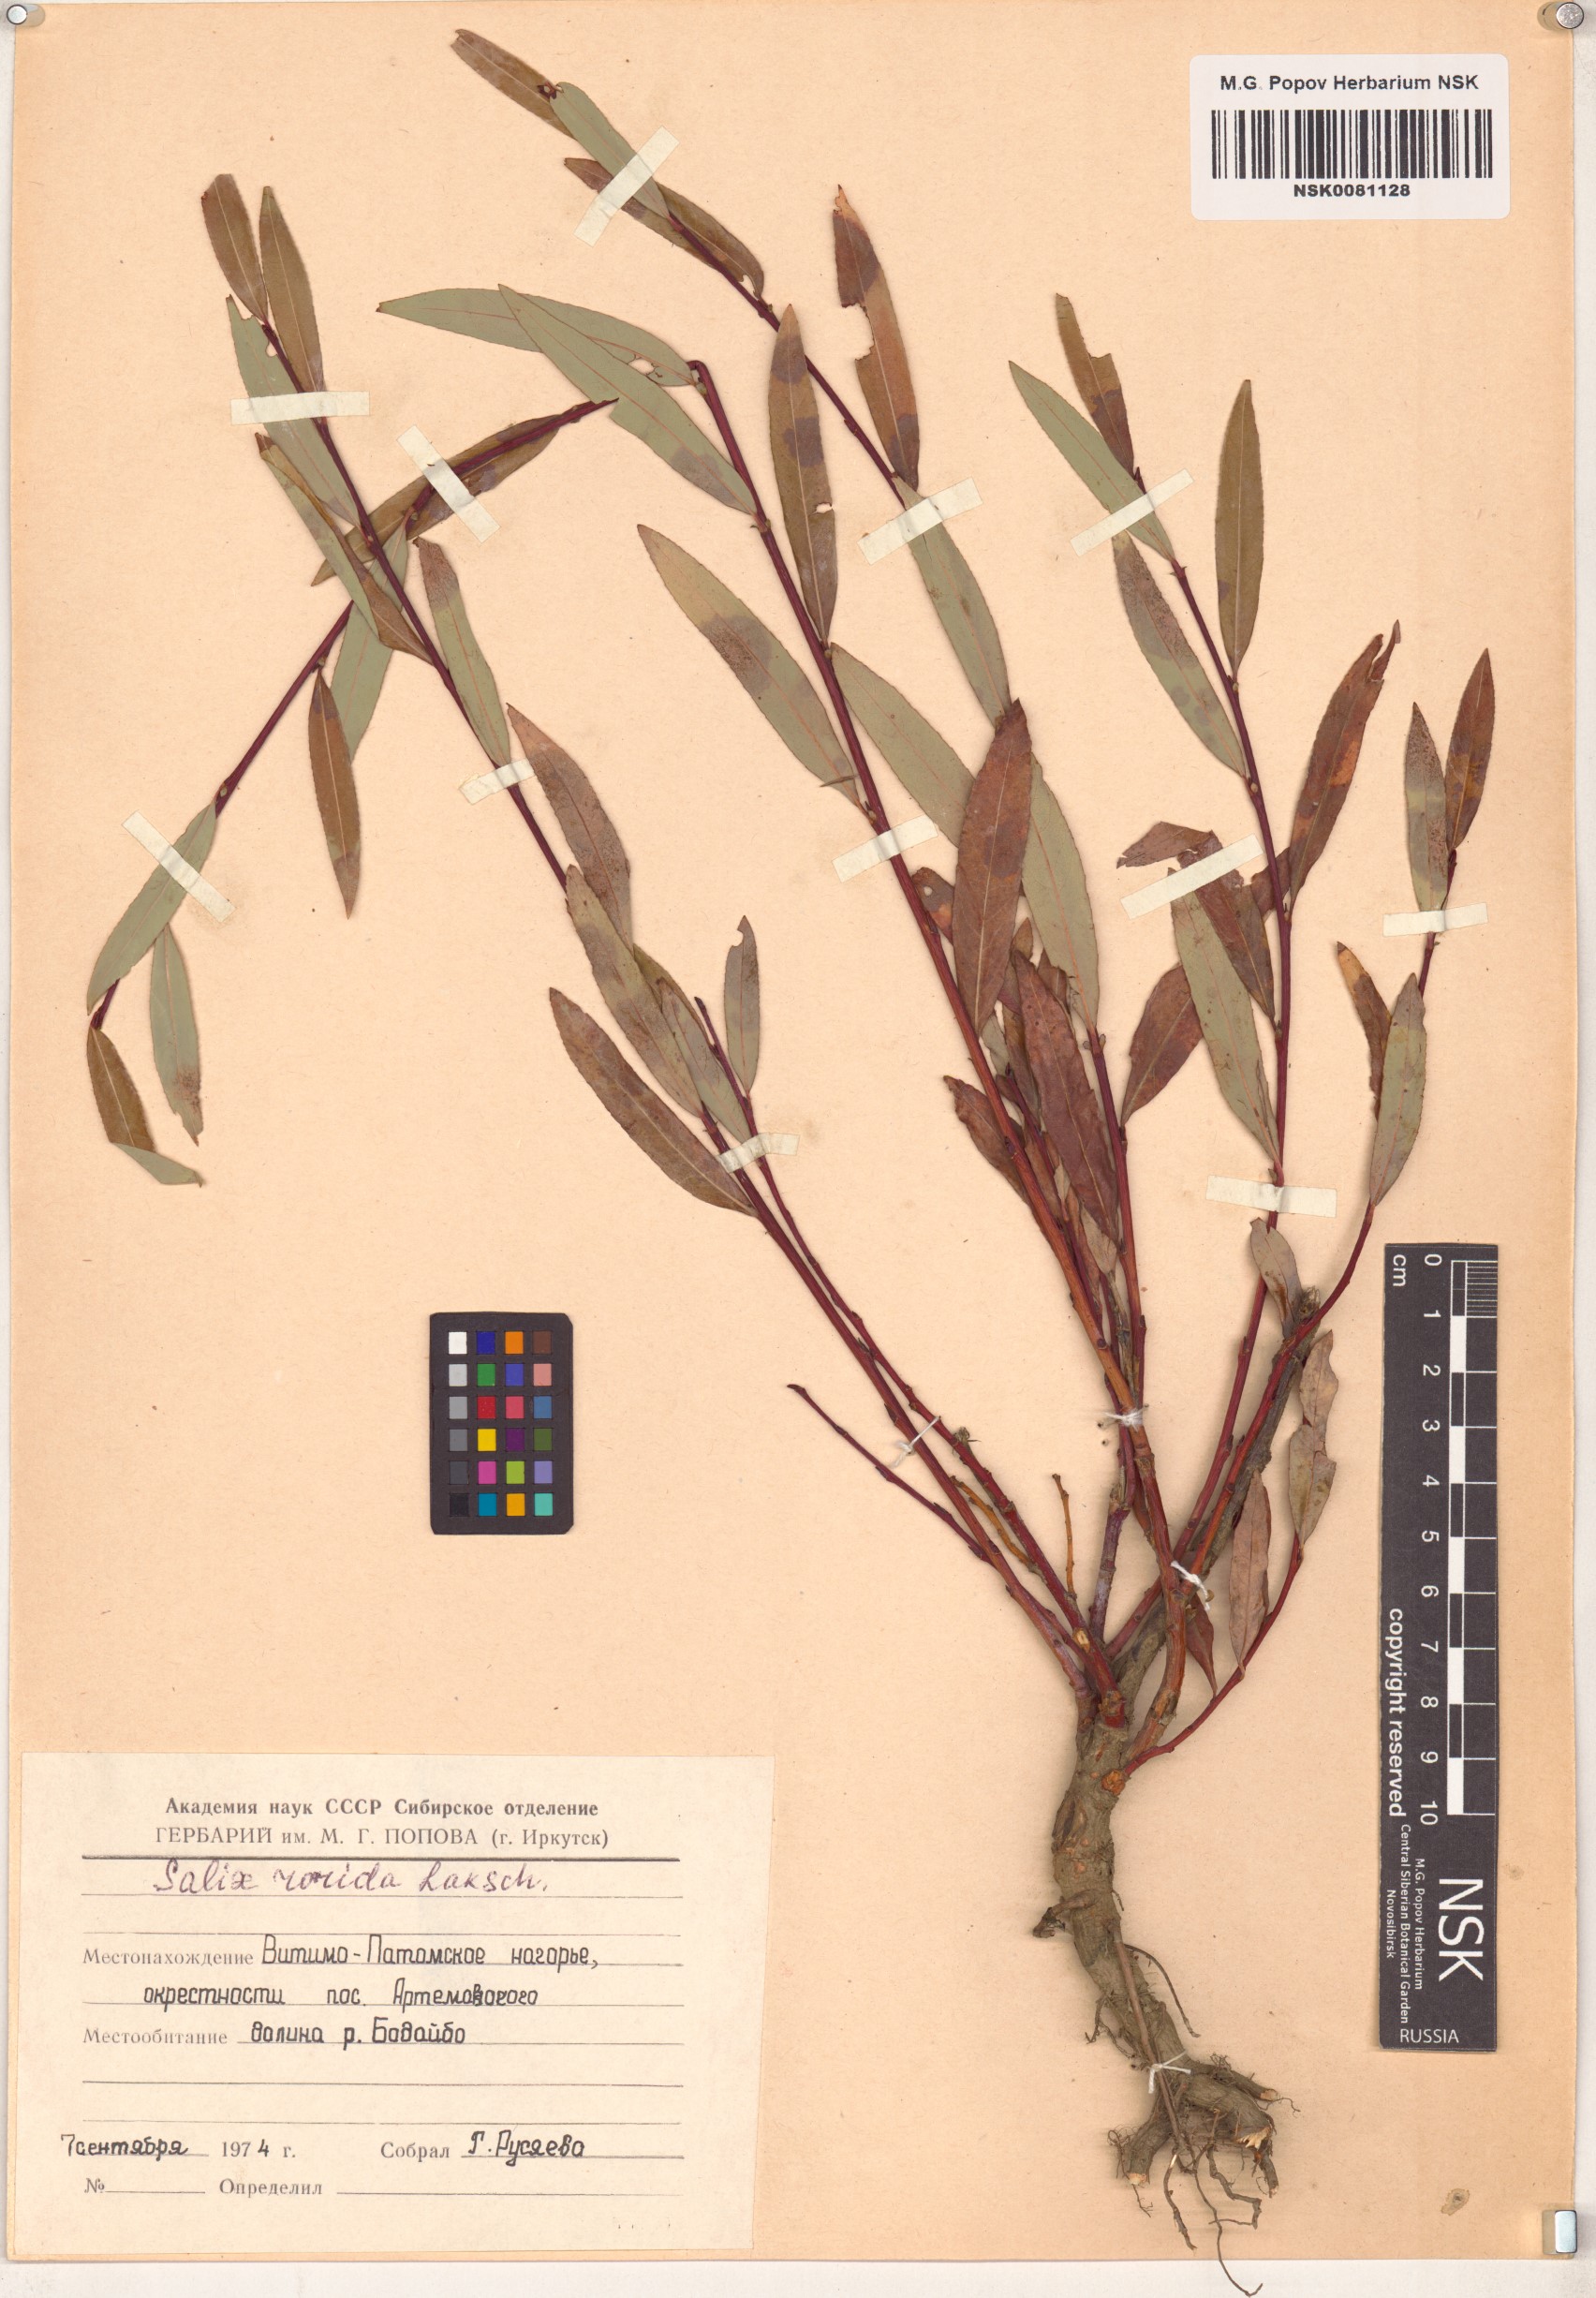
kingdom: Plantae
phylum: Tracheophyta
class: Magnoliopsida
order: Malpighiales
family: Salicaceae
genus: Salix
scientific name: Salix rorida
